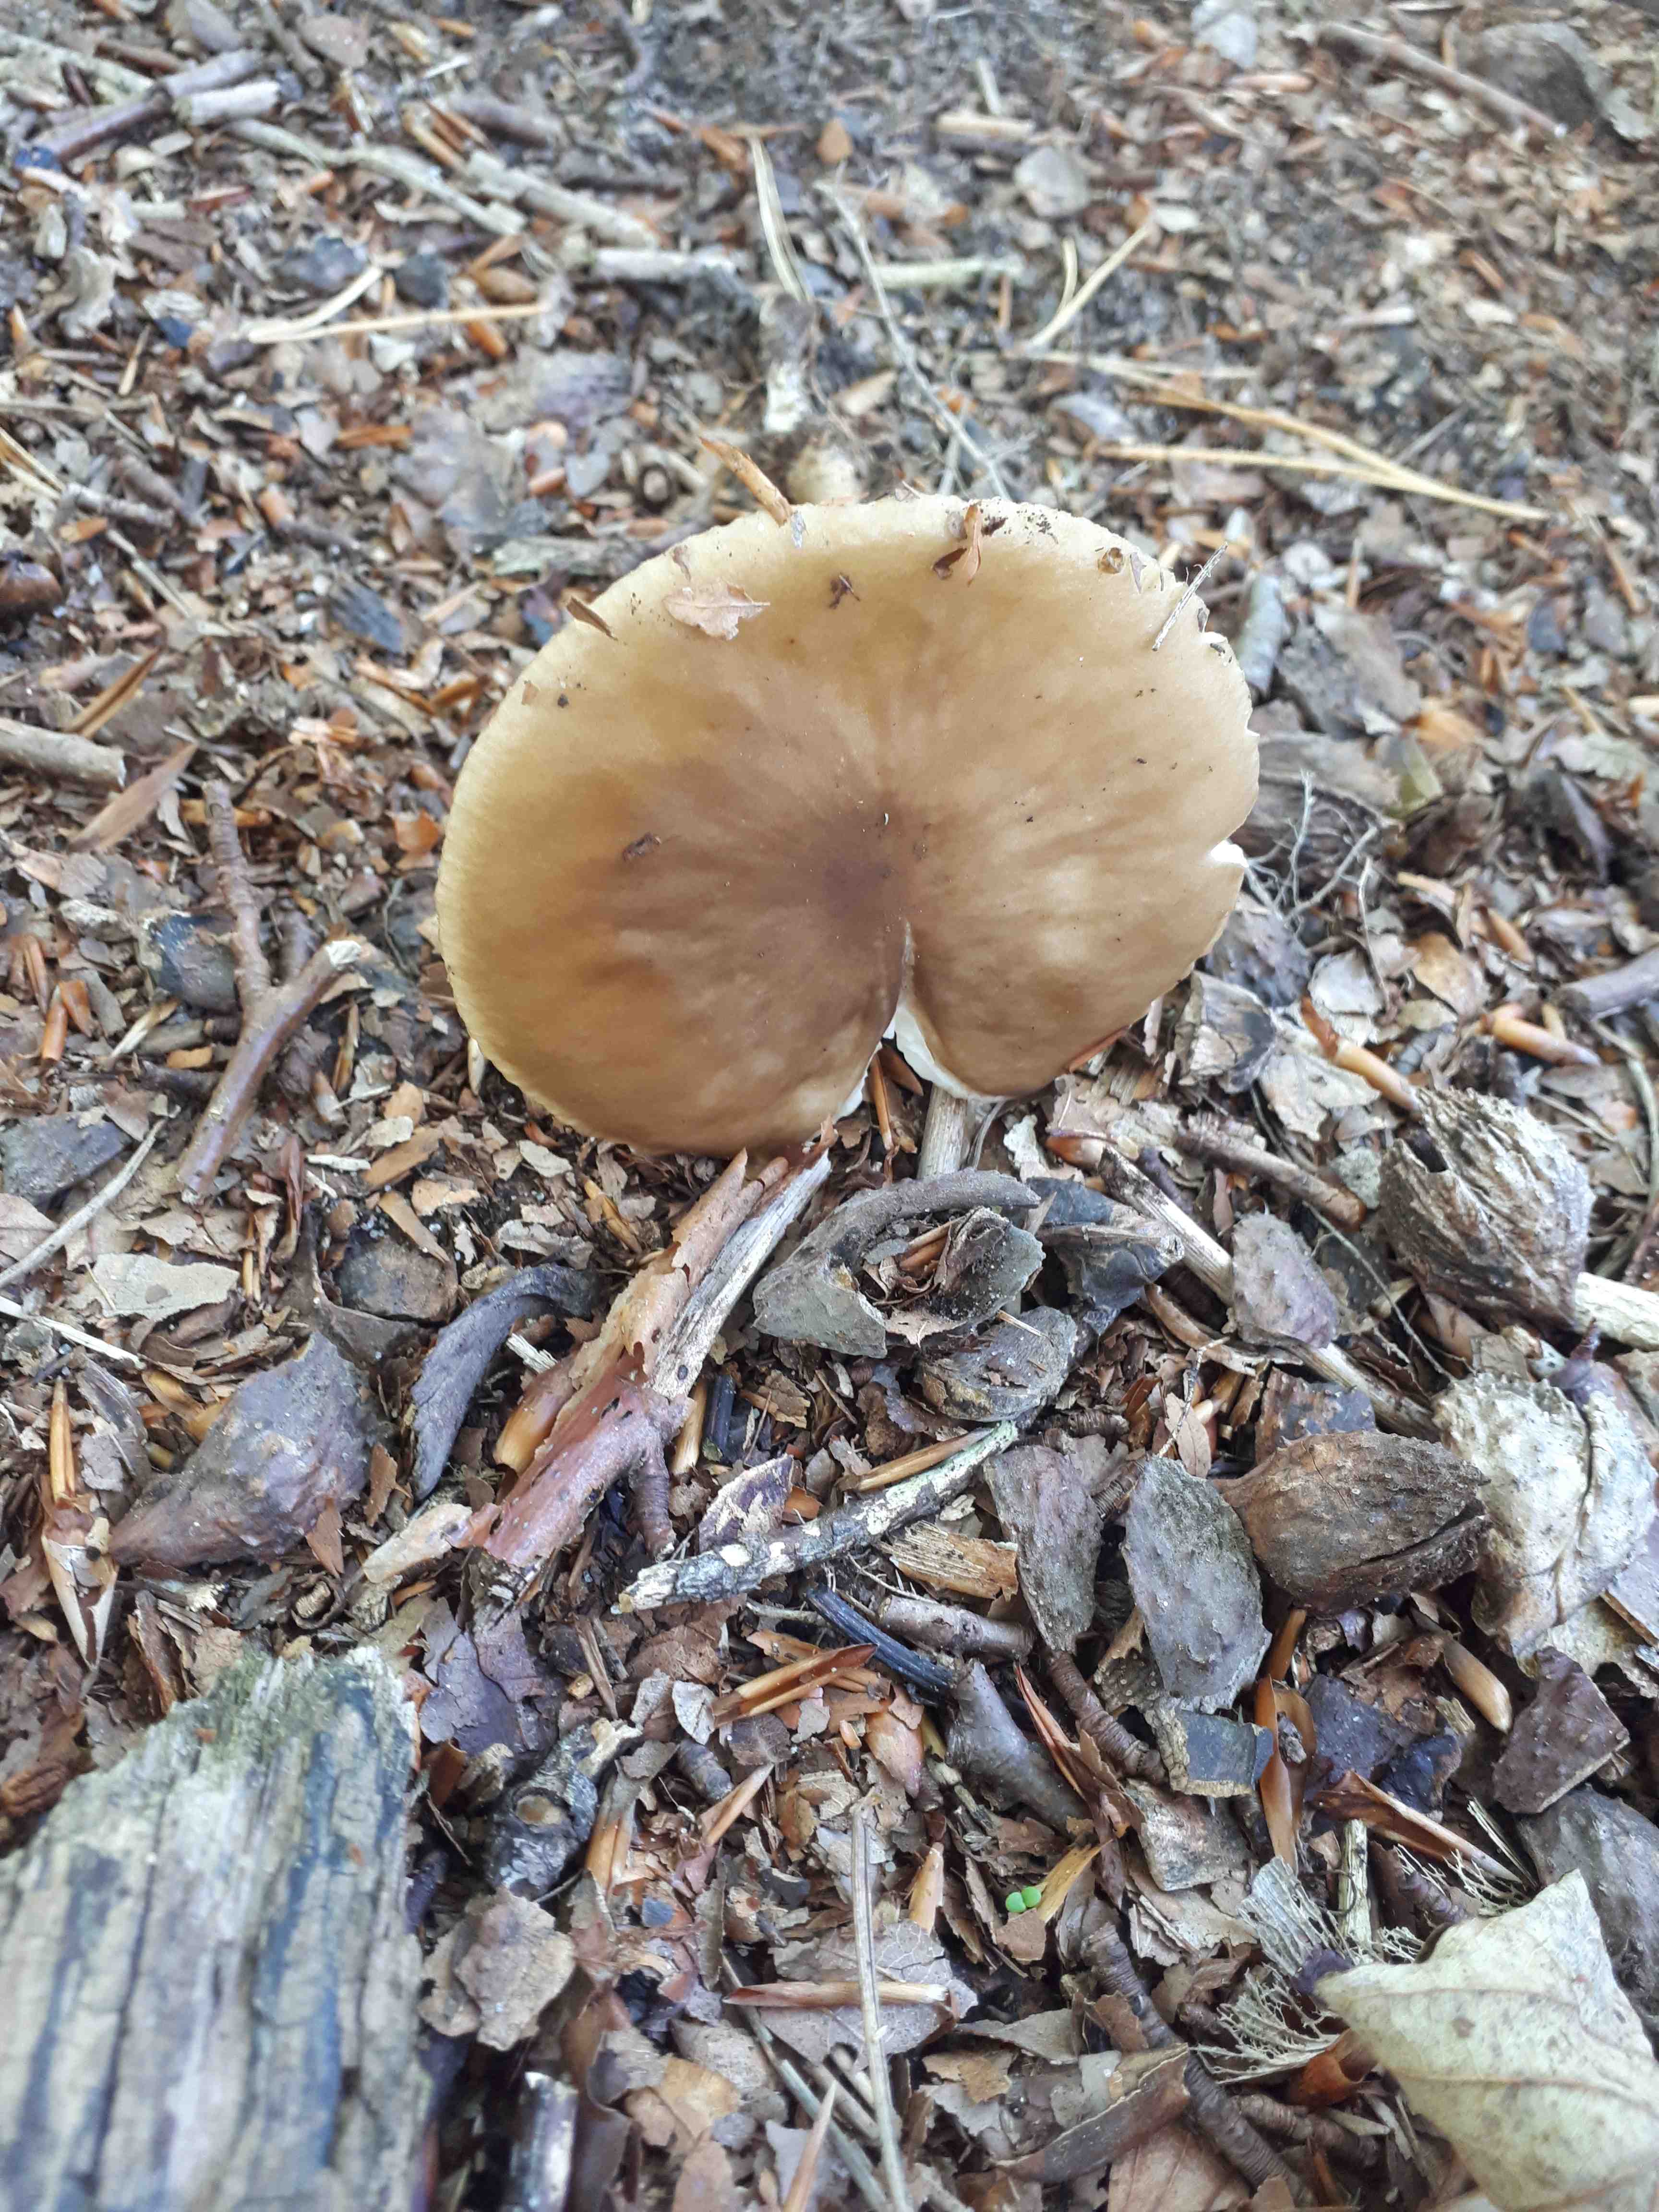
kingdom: Fungi
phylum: Basidiomycota
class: Agaricomycetes
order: Agaricales
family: Physalacriaceae
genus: Hymenopellis
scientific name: Hymenopellis radicata
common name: almindelig pælerodshat
